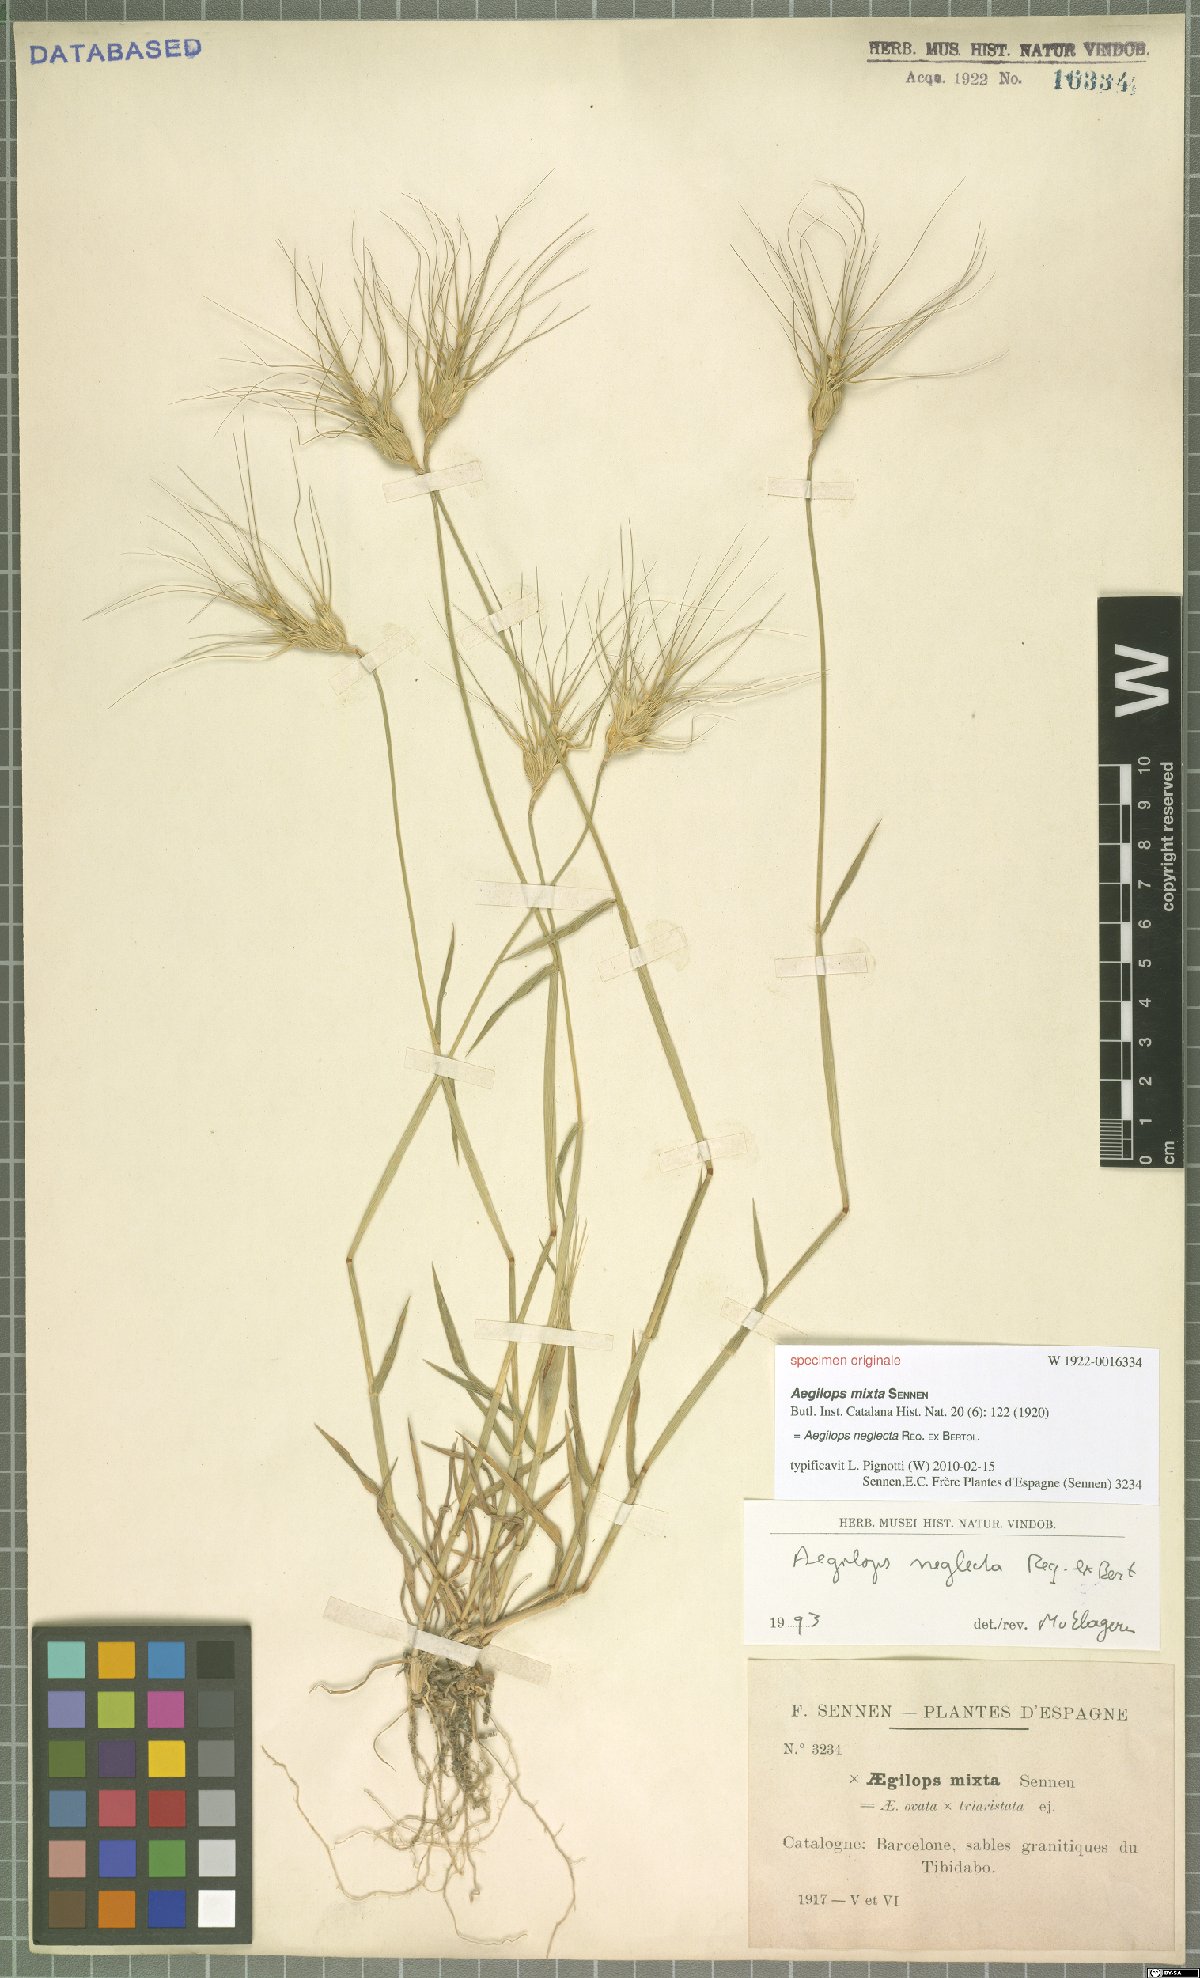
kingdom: Plantae
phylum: Tracheophyta
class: Liliopsida
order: Poales
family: Poaceae
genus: Aegilops
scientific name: Aegilops neglecta
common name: Three-awn goat grass
